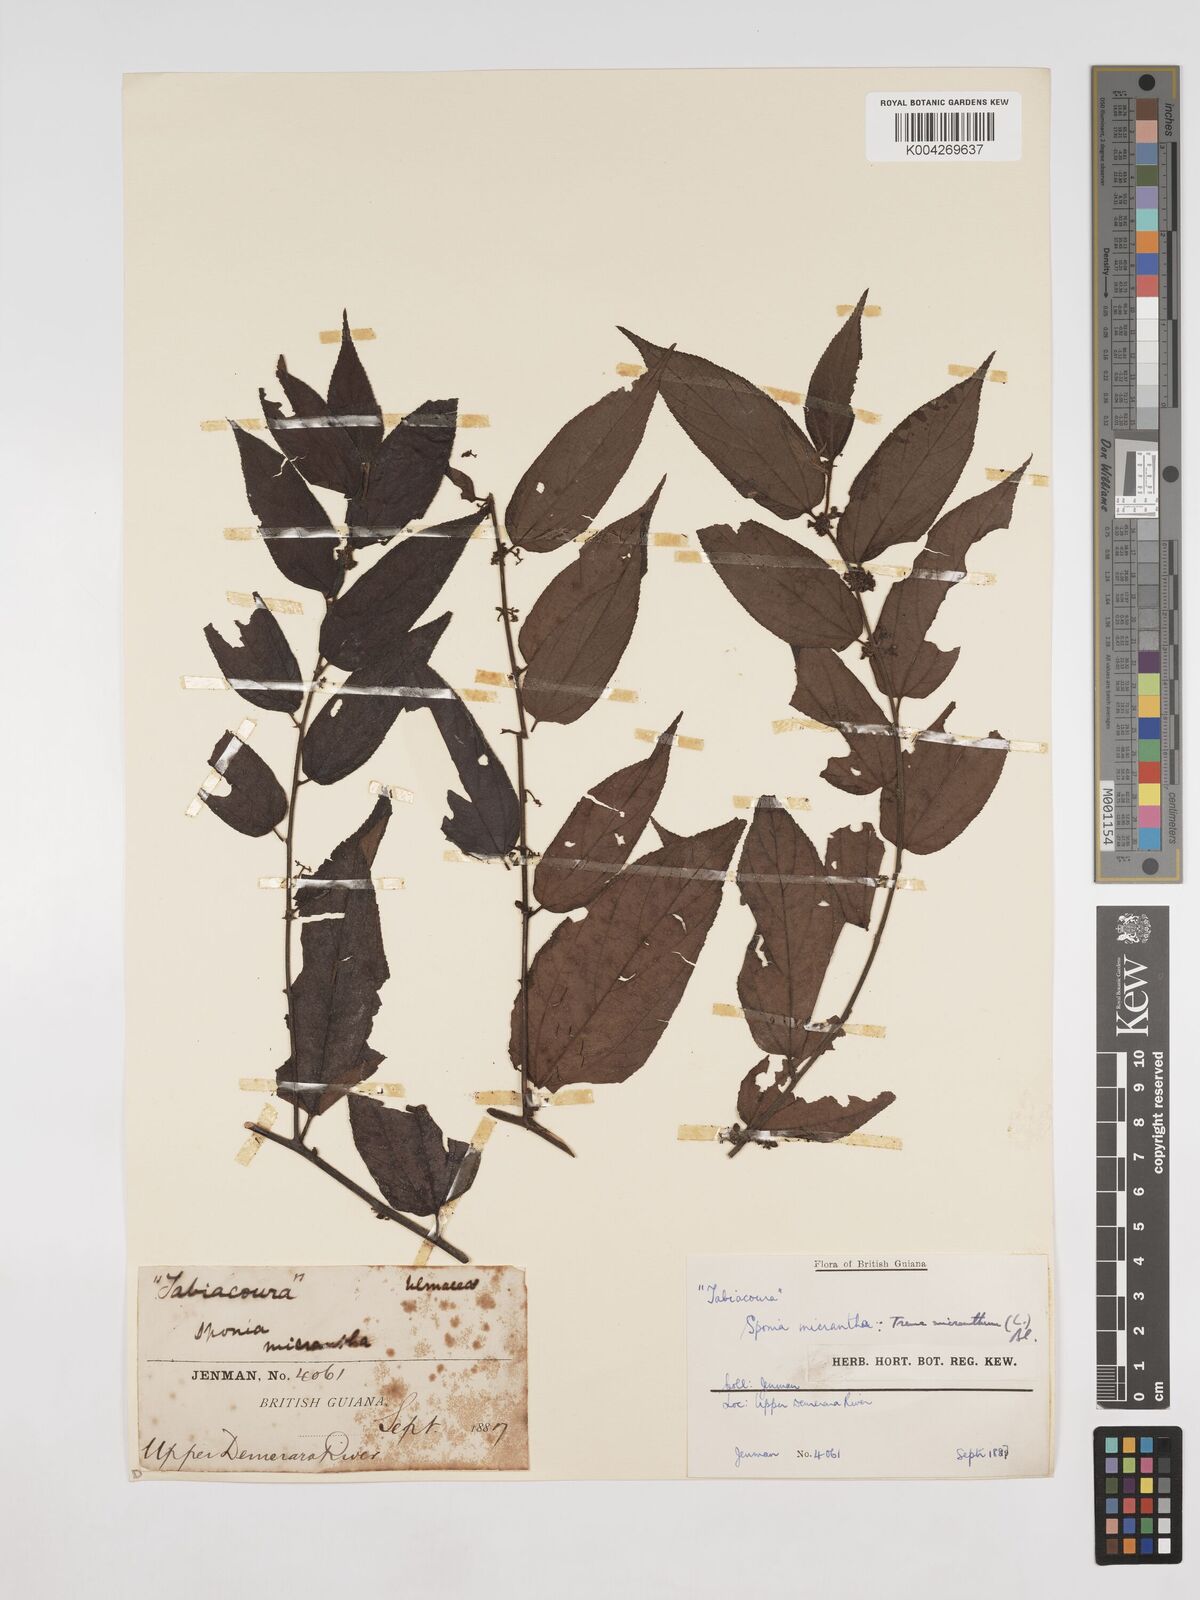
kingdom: Plantae
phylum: Tracheophyta
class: Magnoliopsida
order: Rosales
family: Cannabaceae
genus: Trema
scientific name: Trema micranthum
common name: Jamaican nettletree
